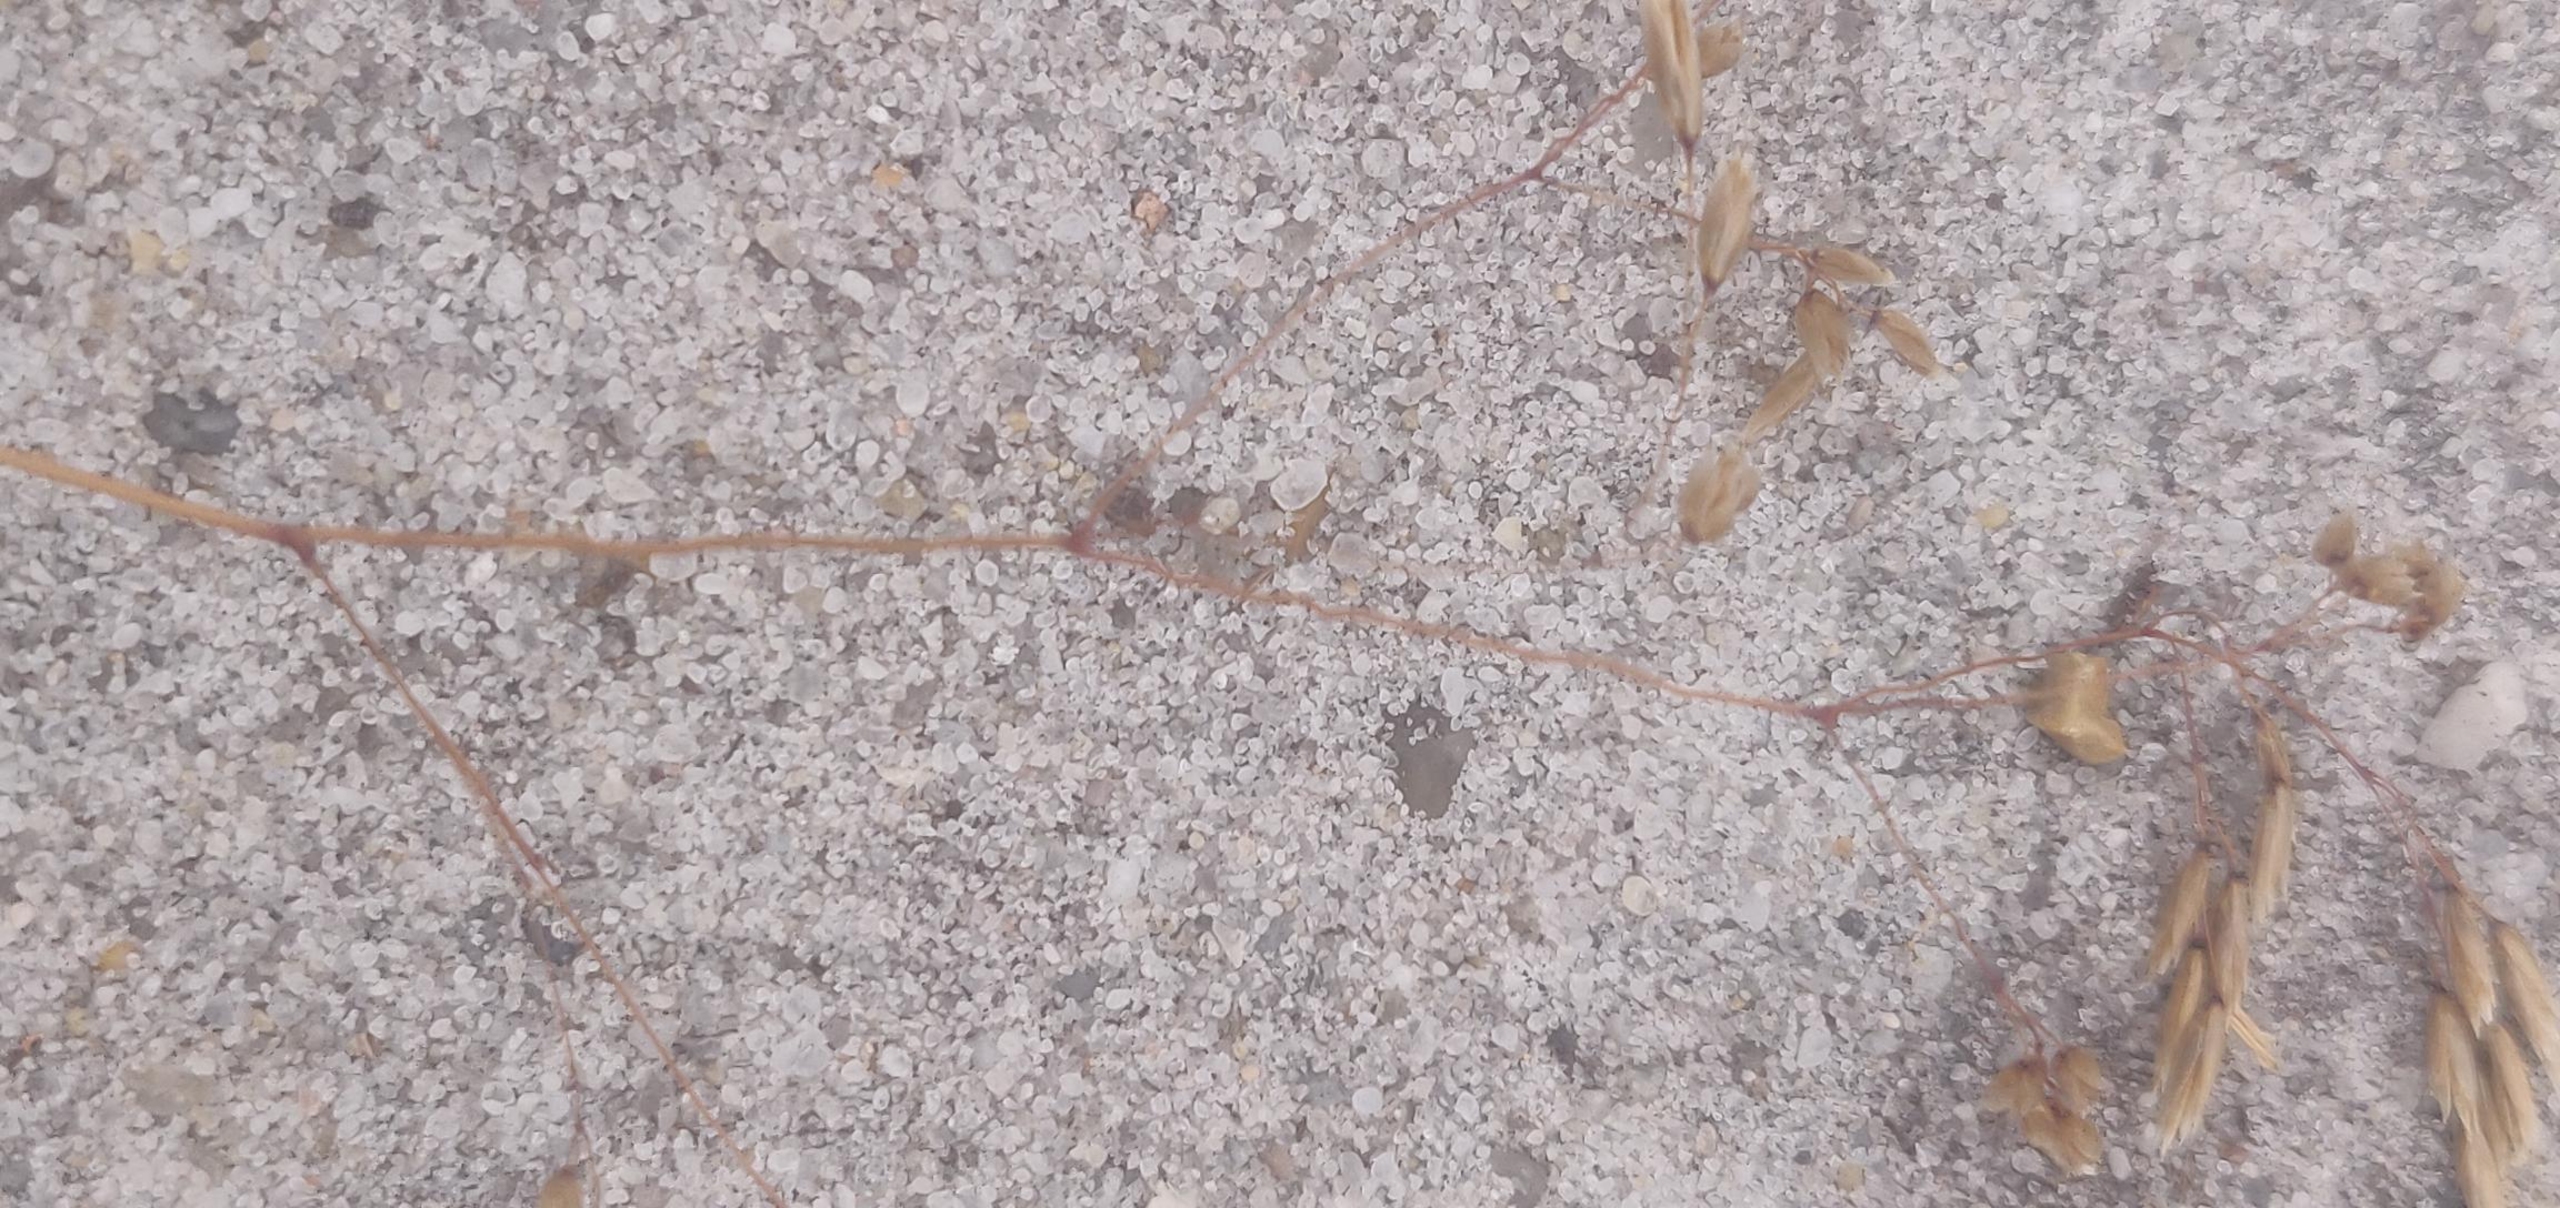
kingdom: Plantae
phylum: Tracheophyta
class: Liliopsida
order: Poales
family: Poaceae
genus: Avenella
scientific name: Avenella flexuosa
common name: Bølget bunke
